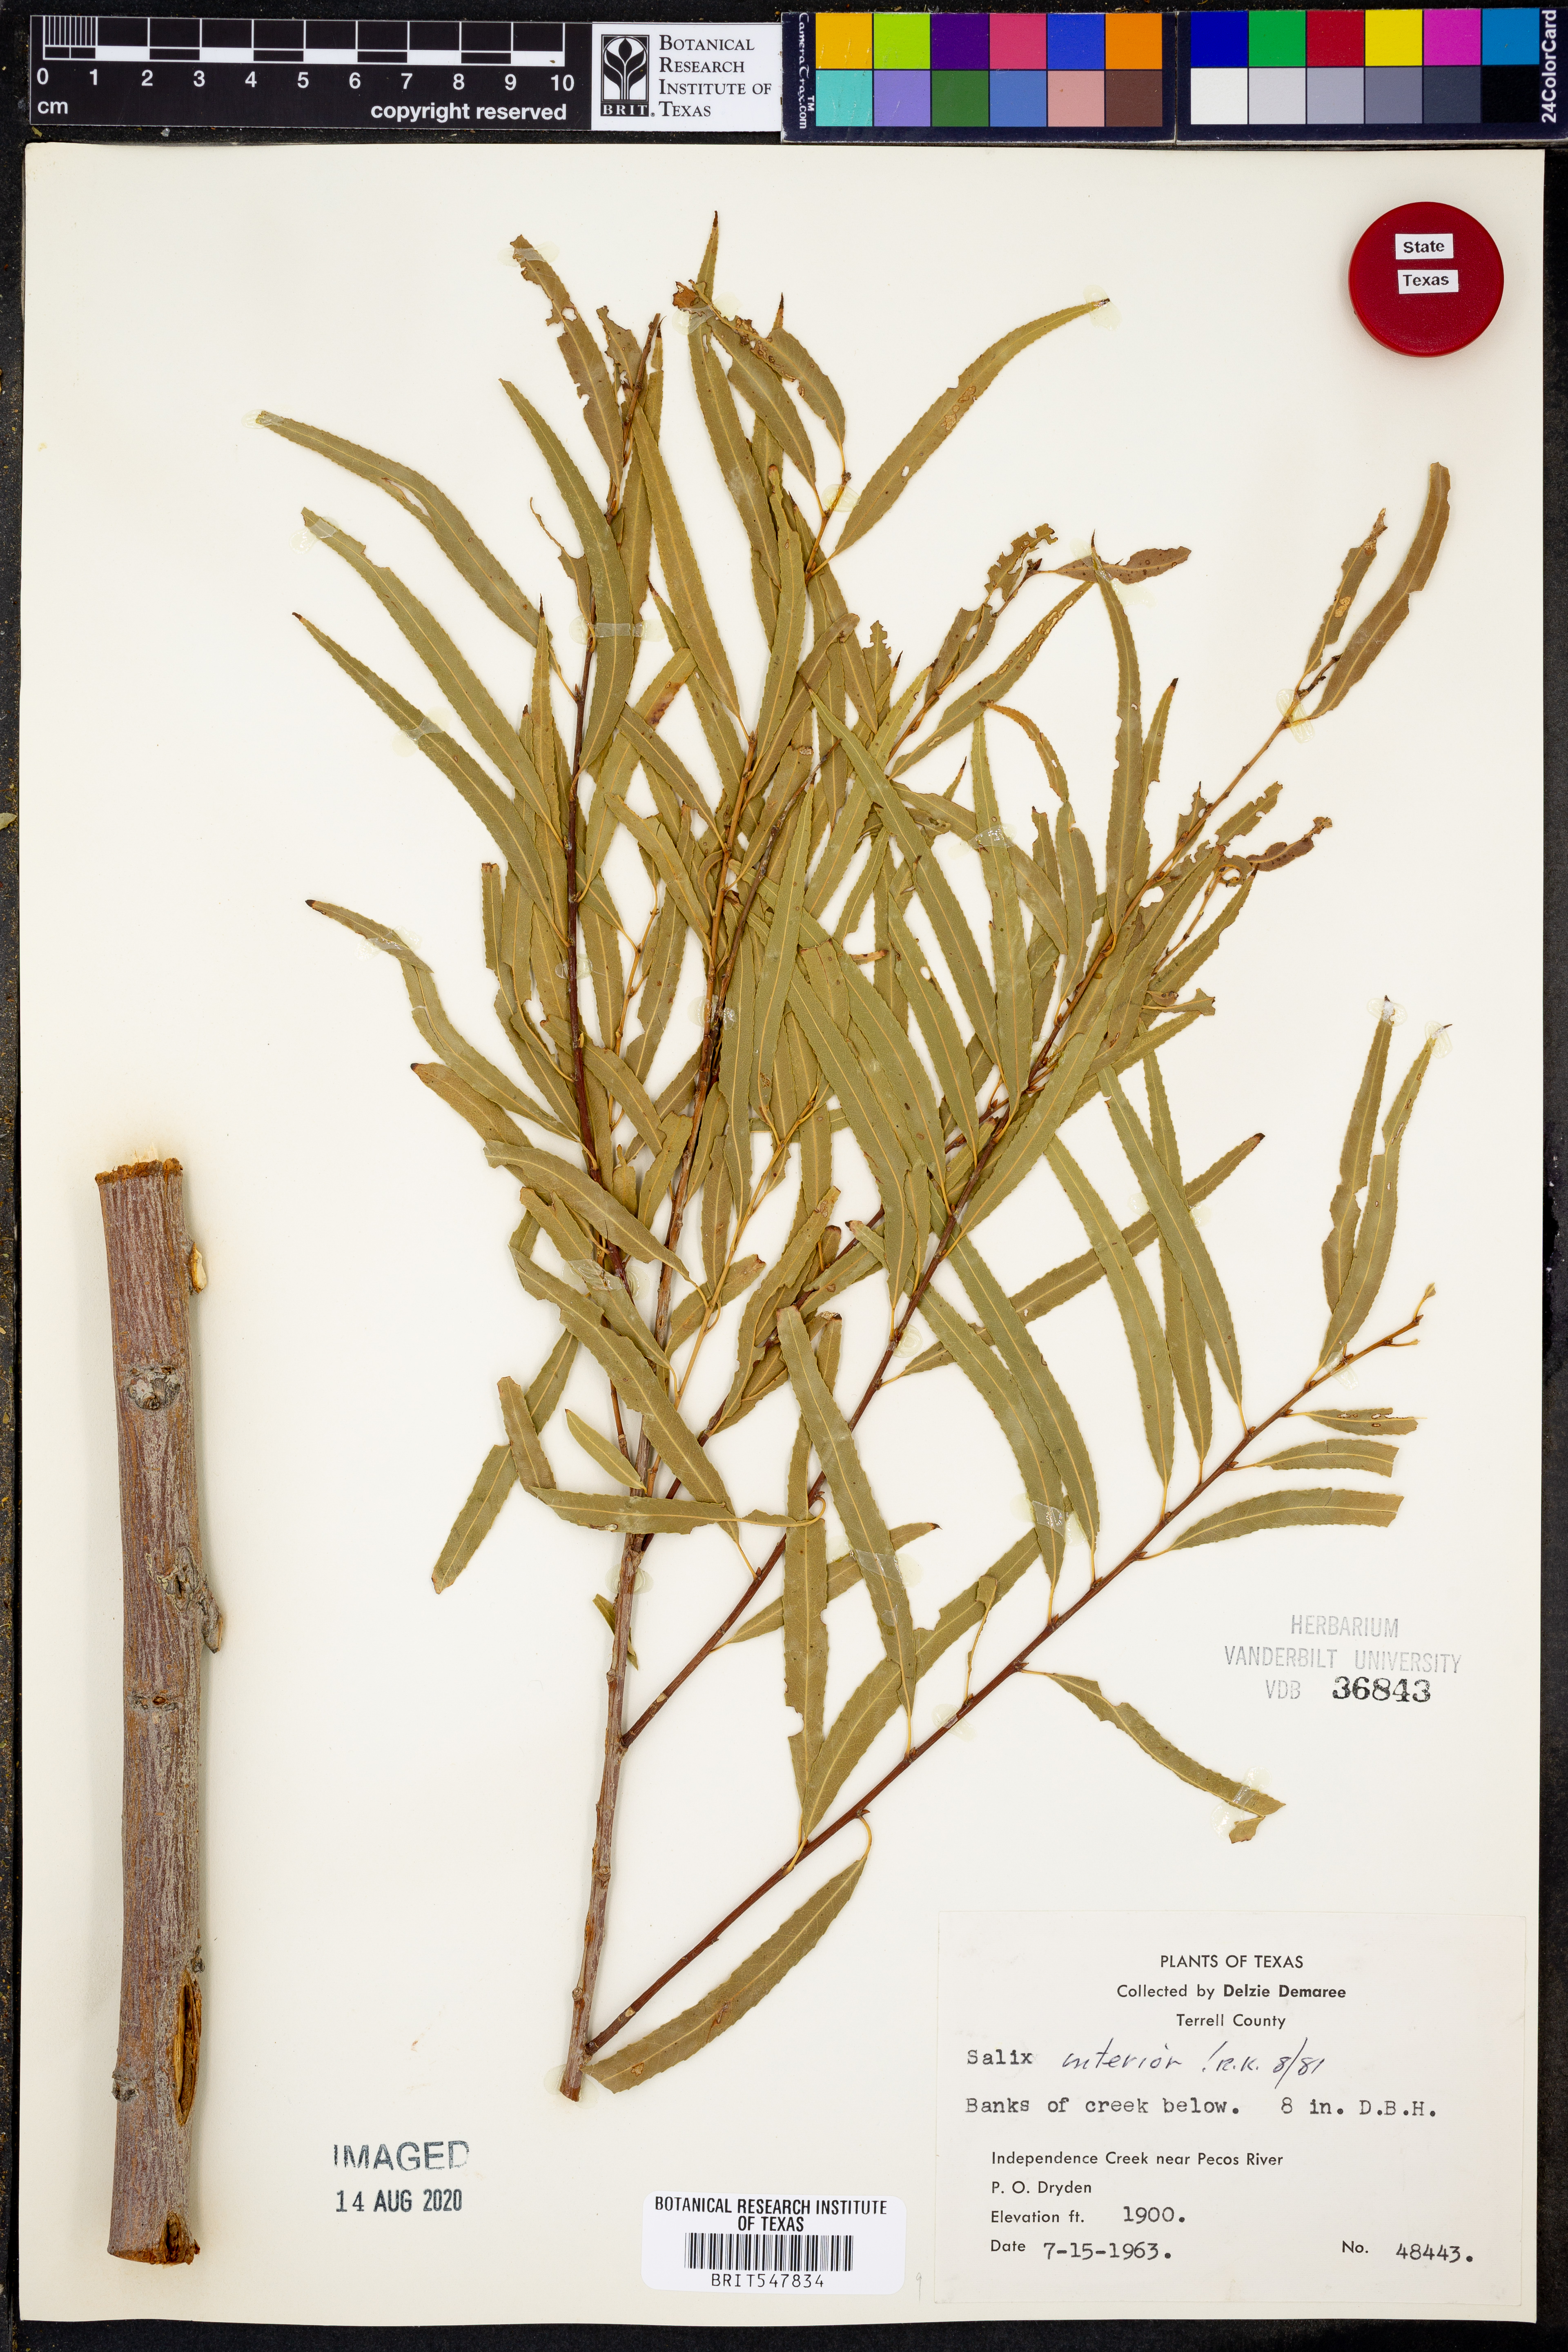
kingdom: Plantae
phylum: Tracheophyta
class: Magnoliopsida
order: Malpighiales
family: Salicaceae
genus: Salix
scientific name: Salix interior
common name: Sandbar willow
